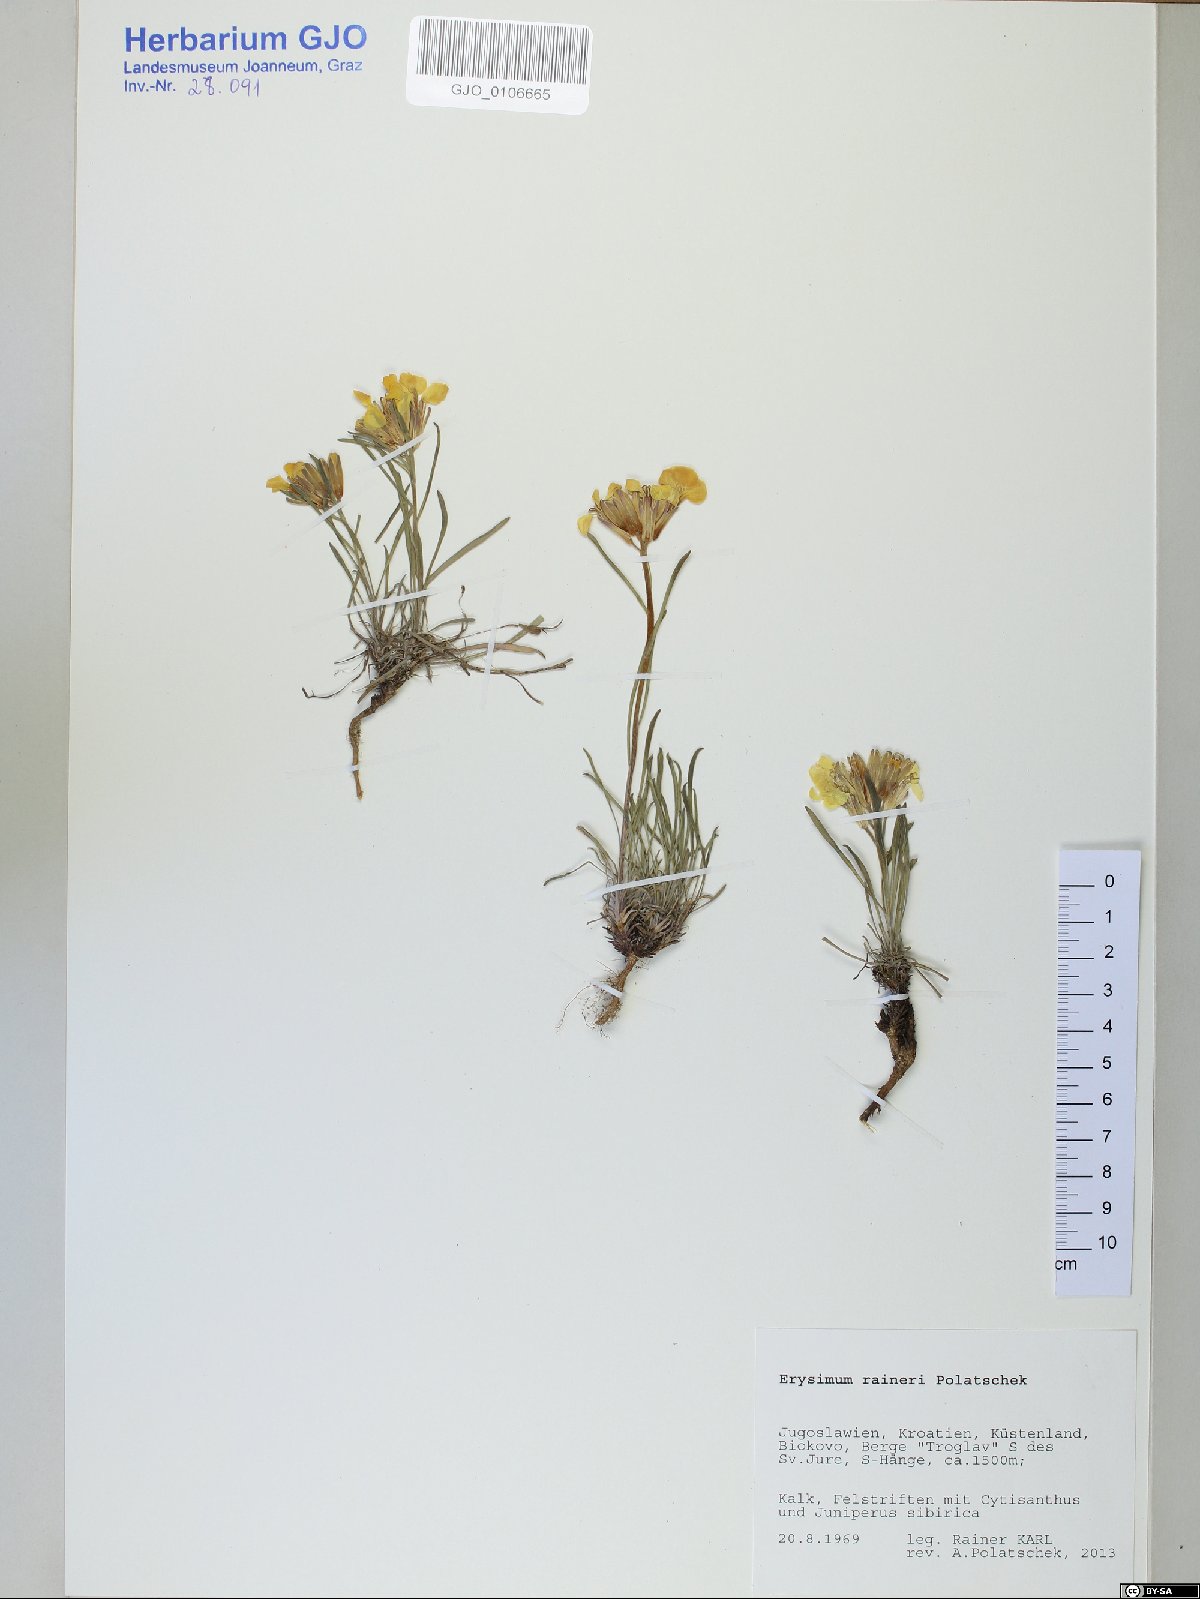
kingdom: Plantae
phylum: Tracheophyta
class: Magnoliopsida
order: Brassicales
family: Brassicaceae
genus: Erysimum
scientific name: Erysimum raineri
